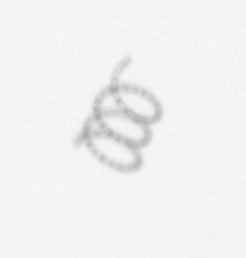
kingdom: Chromista
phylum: Ochrophyta
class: Bacillariophyceae
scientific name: Bacillariophyceae
